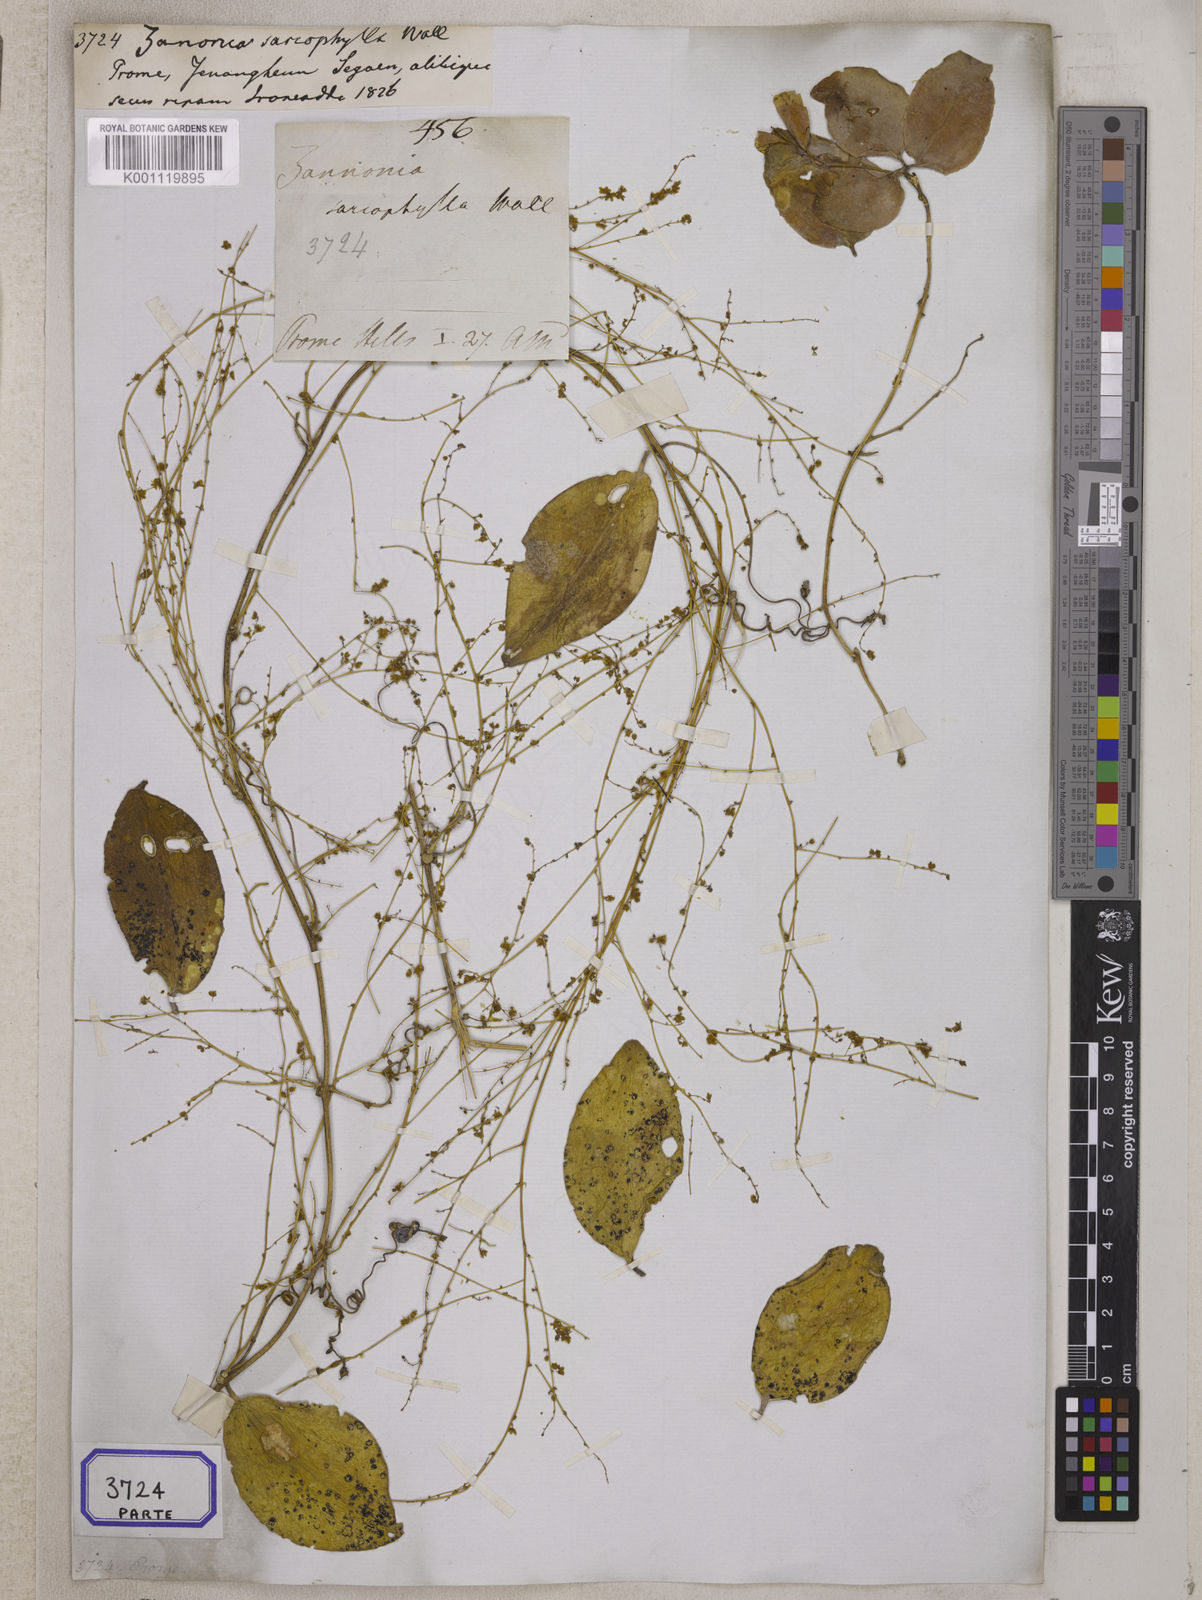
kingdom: Plantae
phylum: Tracheophyta
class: Magnoliopsida
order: Cucurbitales
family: Cucurbitaceae
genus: Neoalsomitra
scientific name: Neoalsomitra sarcophylla
